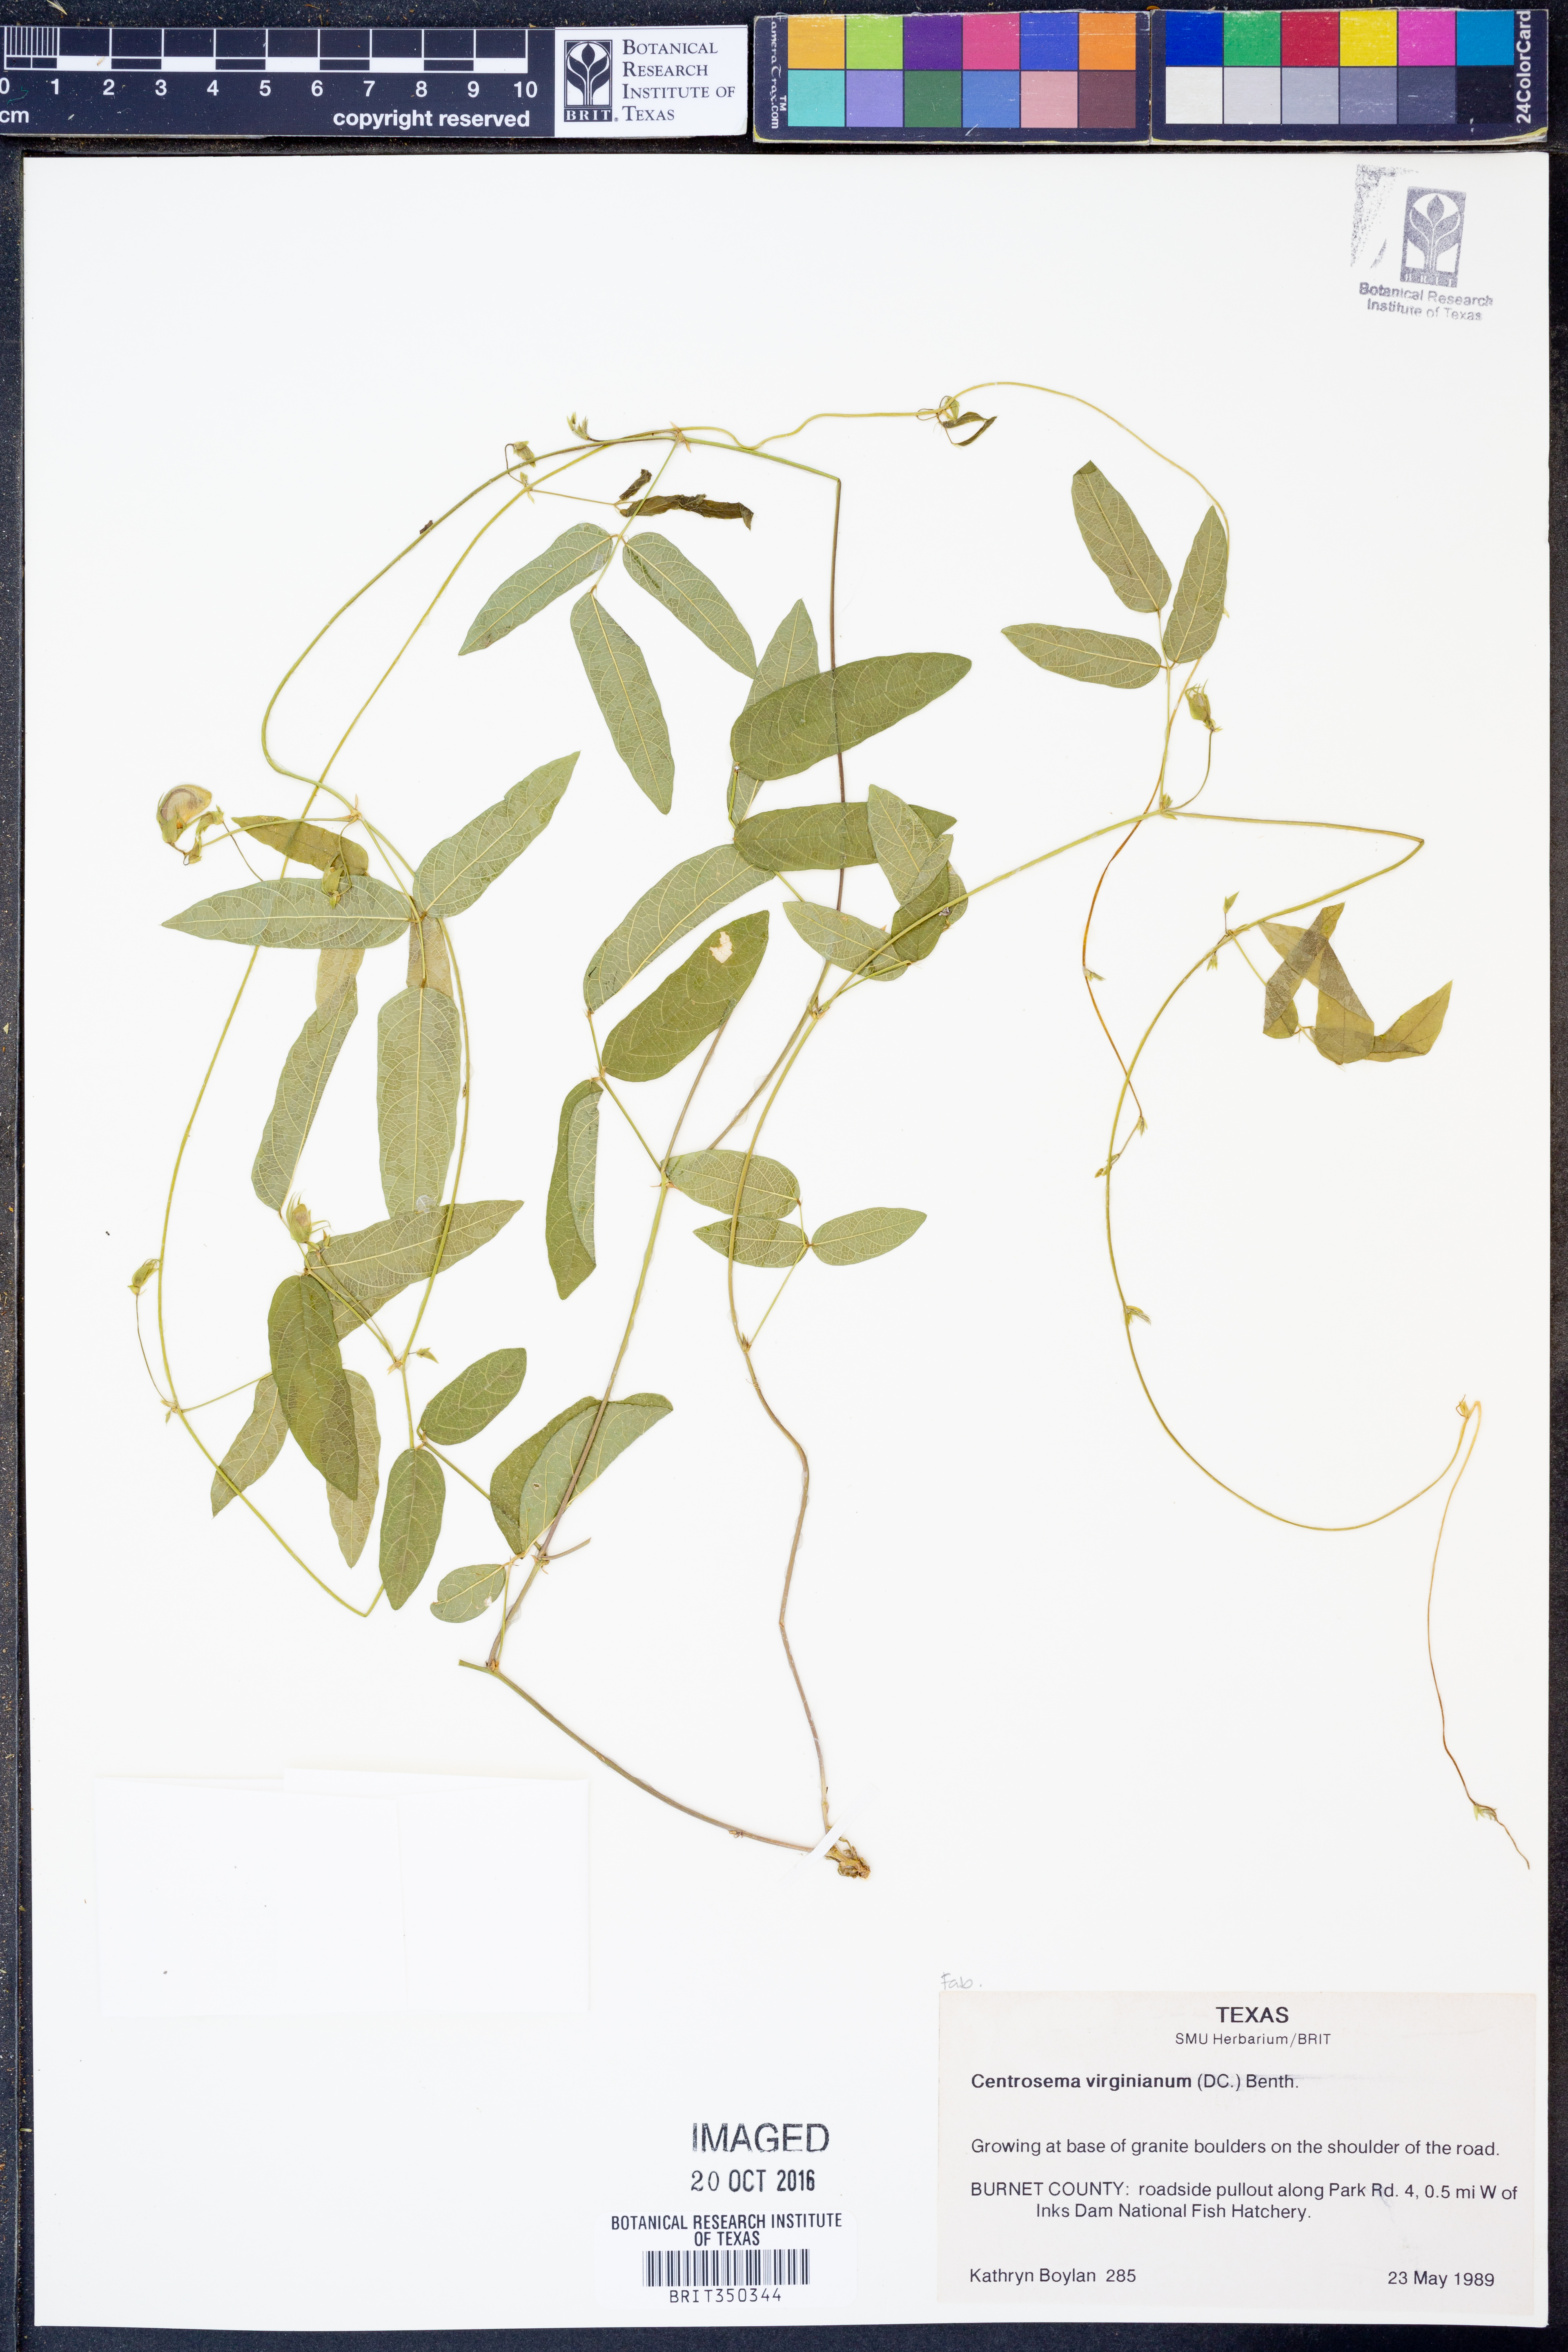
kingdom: Plantae
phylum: Tracheophyta
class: Magnoliopsida
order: Fabales
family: Fabaceae
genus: Centrosema
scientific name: Centrosema virginianum
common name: Butterfly-pea
